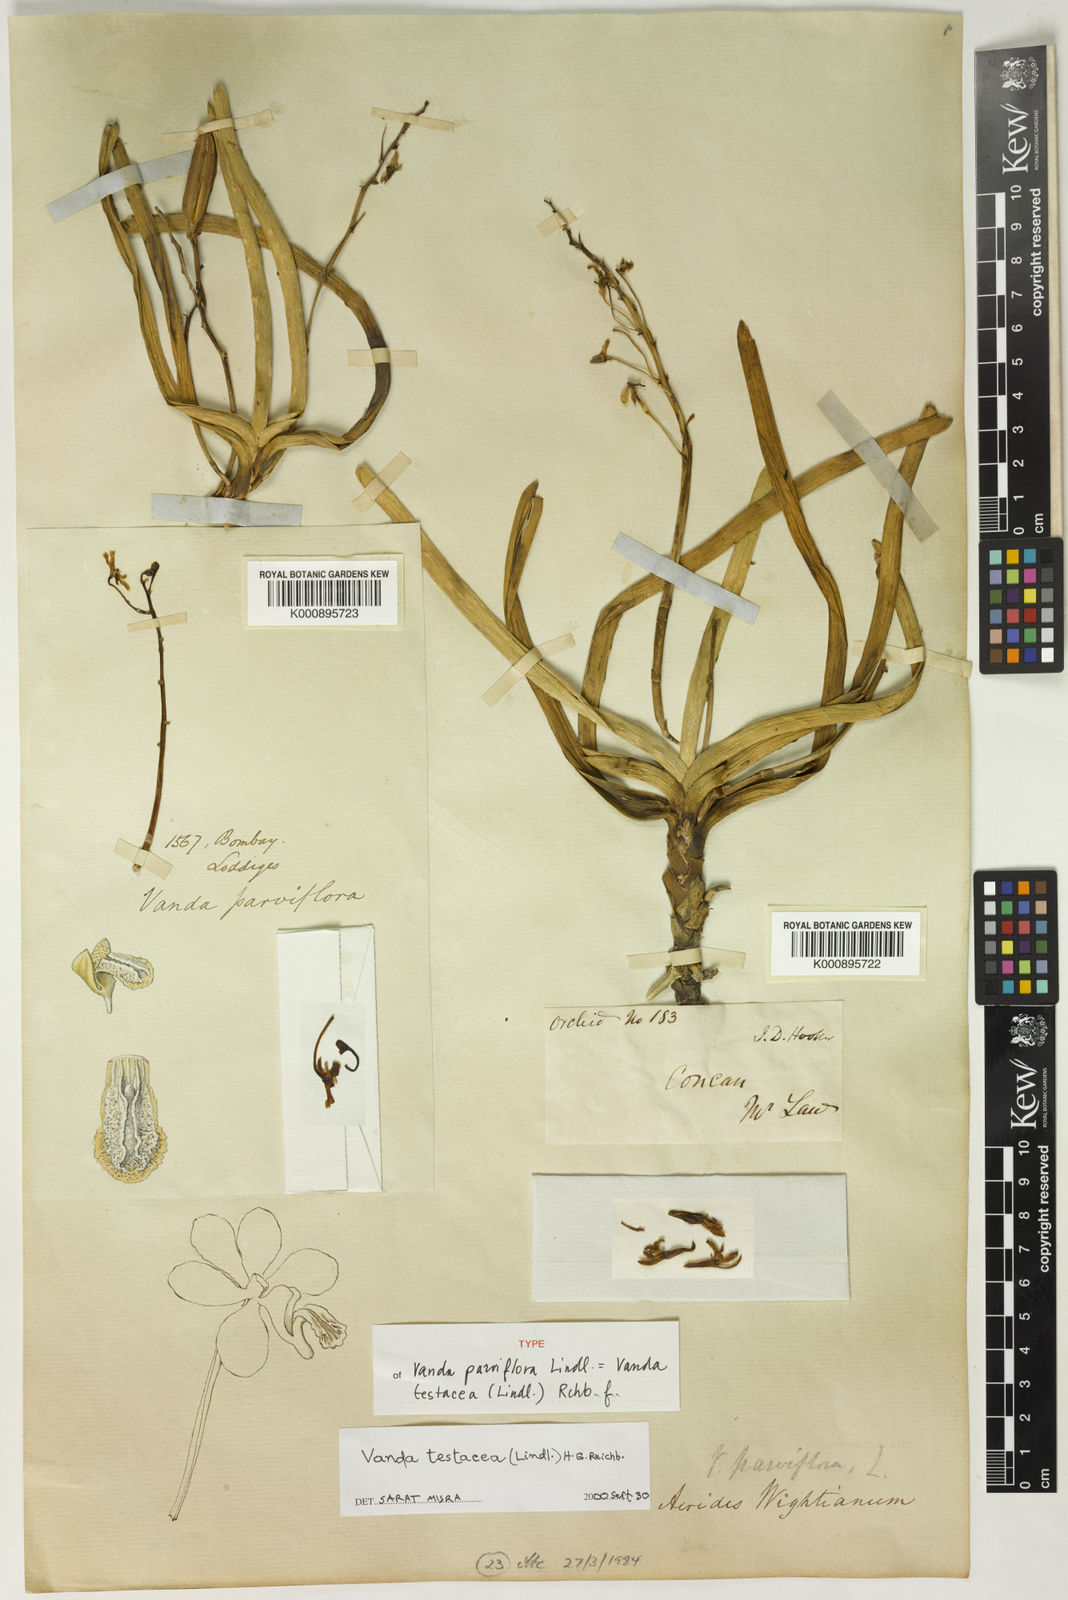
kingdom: Plantae
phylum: Tracheophyta
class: Liliopsida
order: Asparagales
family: Orchidaceae
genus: Vanda
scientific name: Vanda testacea
